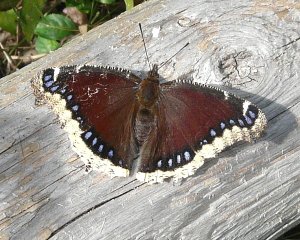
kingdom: Animalia
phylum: Arthropoda
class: Insecta
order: Lepidoptera
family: Nymphalidae
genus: Nymphalis
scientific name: Nymphalis antiopa
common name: Mourning Cloak
